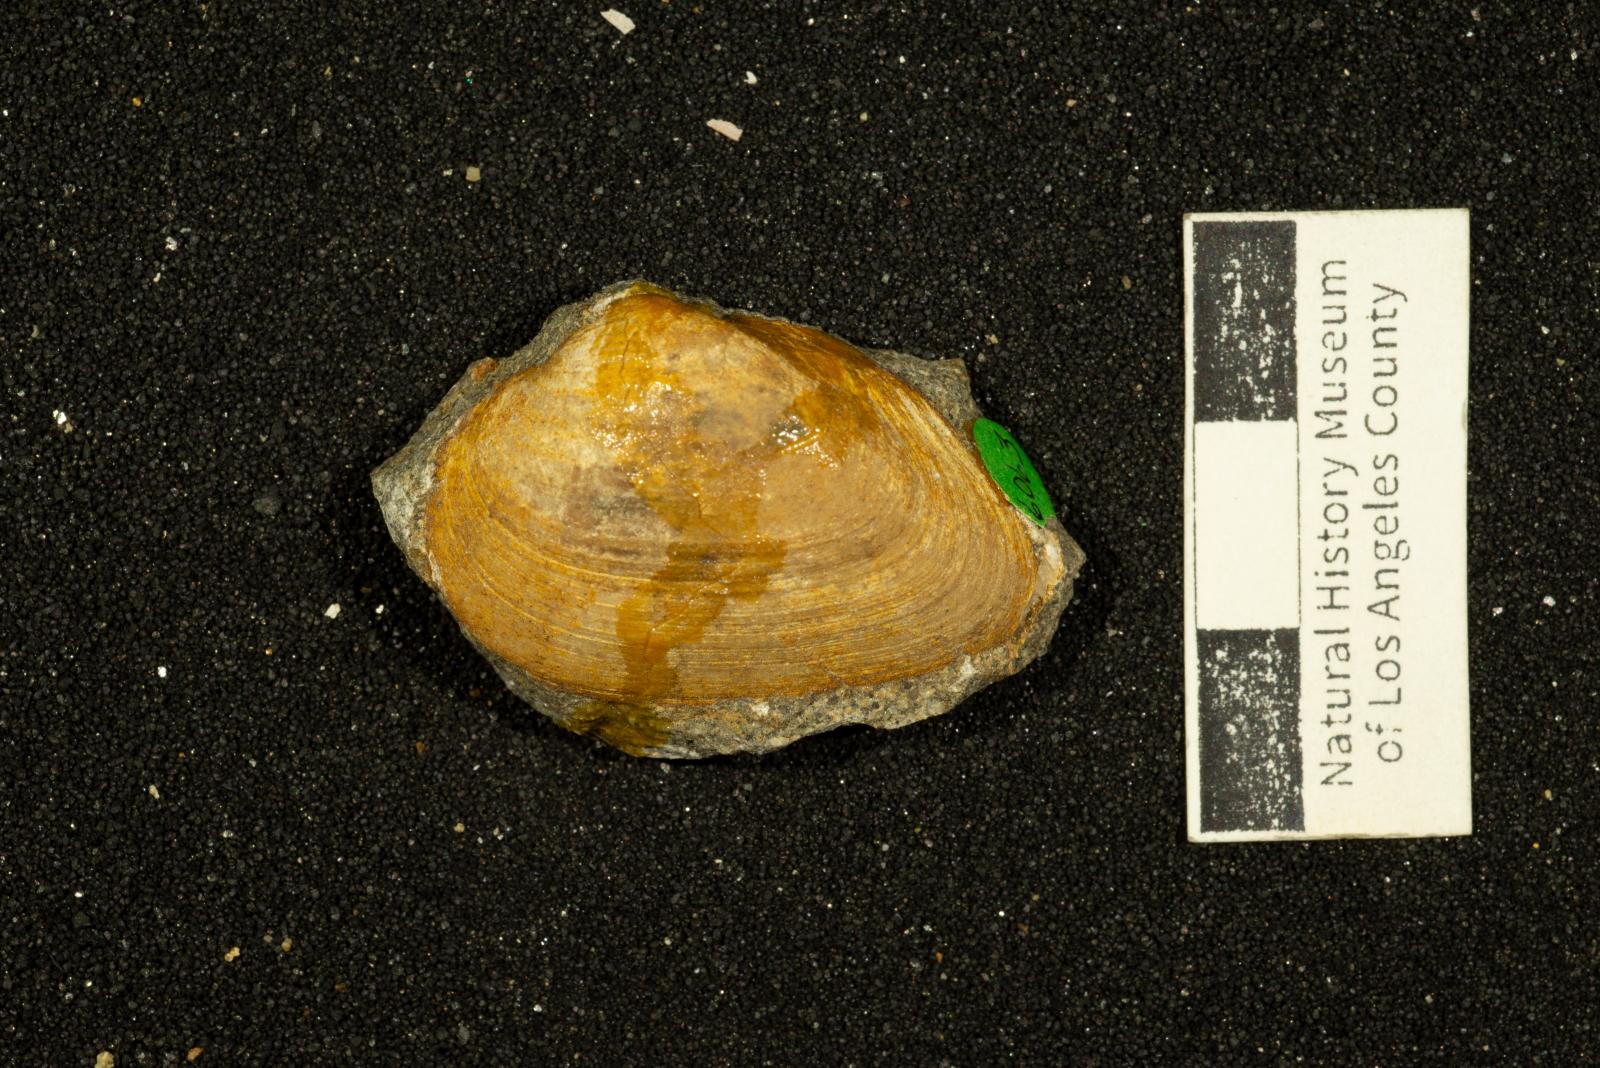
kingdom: Animalia
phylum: Mollusca
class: Bivalvia
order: Arcida
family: Cucullaeidae
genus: Idonearca
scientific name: Idonearca Arca gravida
